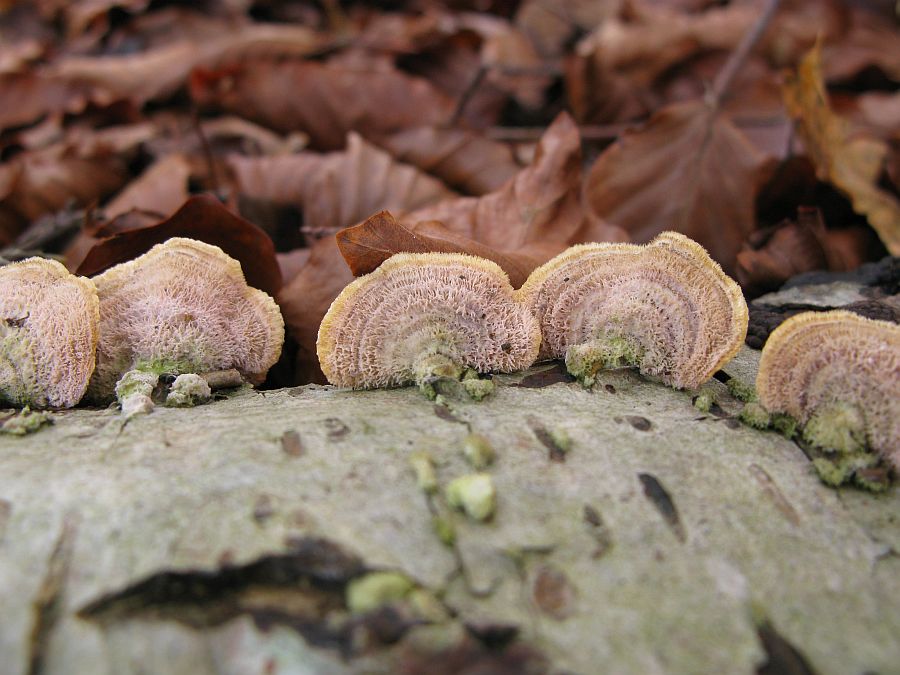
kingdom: Fungi
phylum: Basidiomycota
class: Agaricomycetes
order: Russulales
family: Stereaceae
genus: Stereum
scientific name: Stereum subtomentosum
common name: smuk lædersvamp
